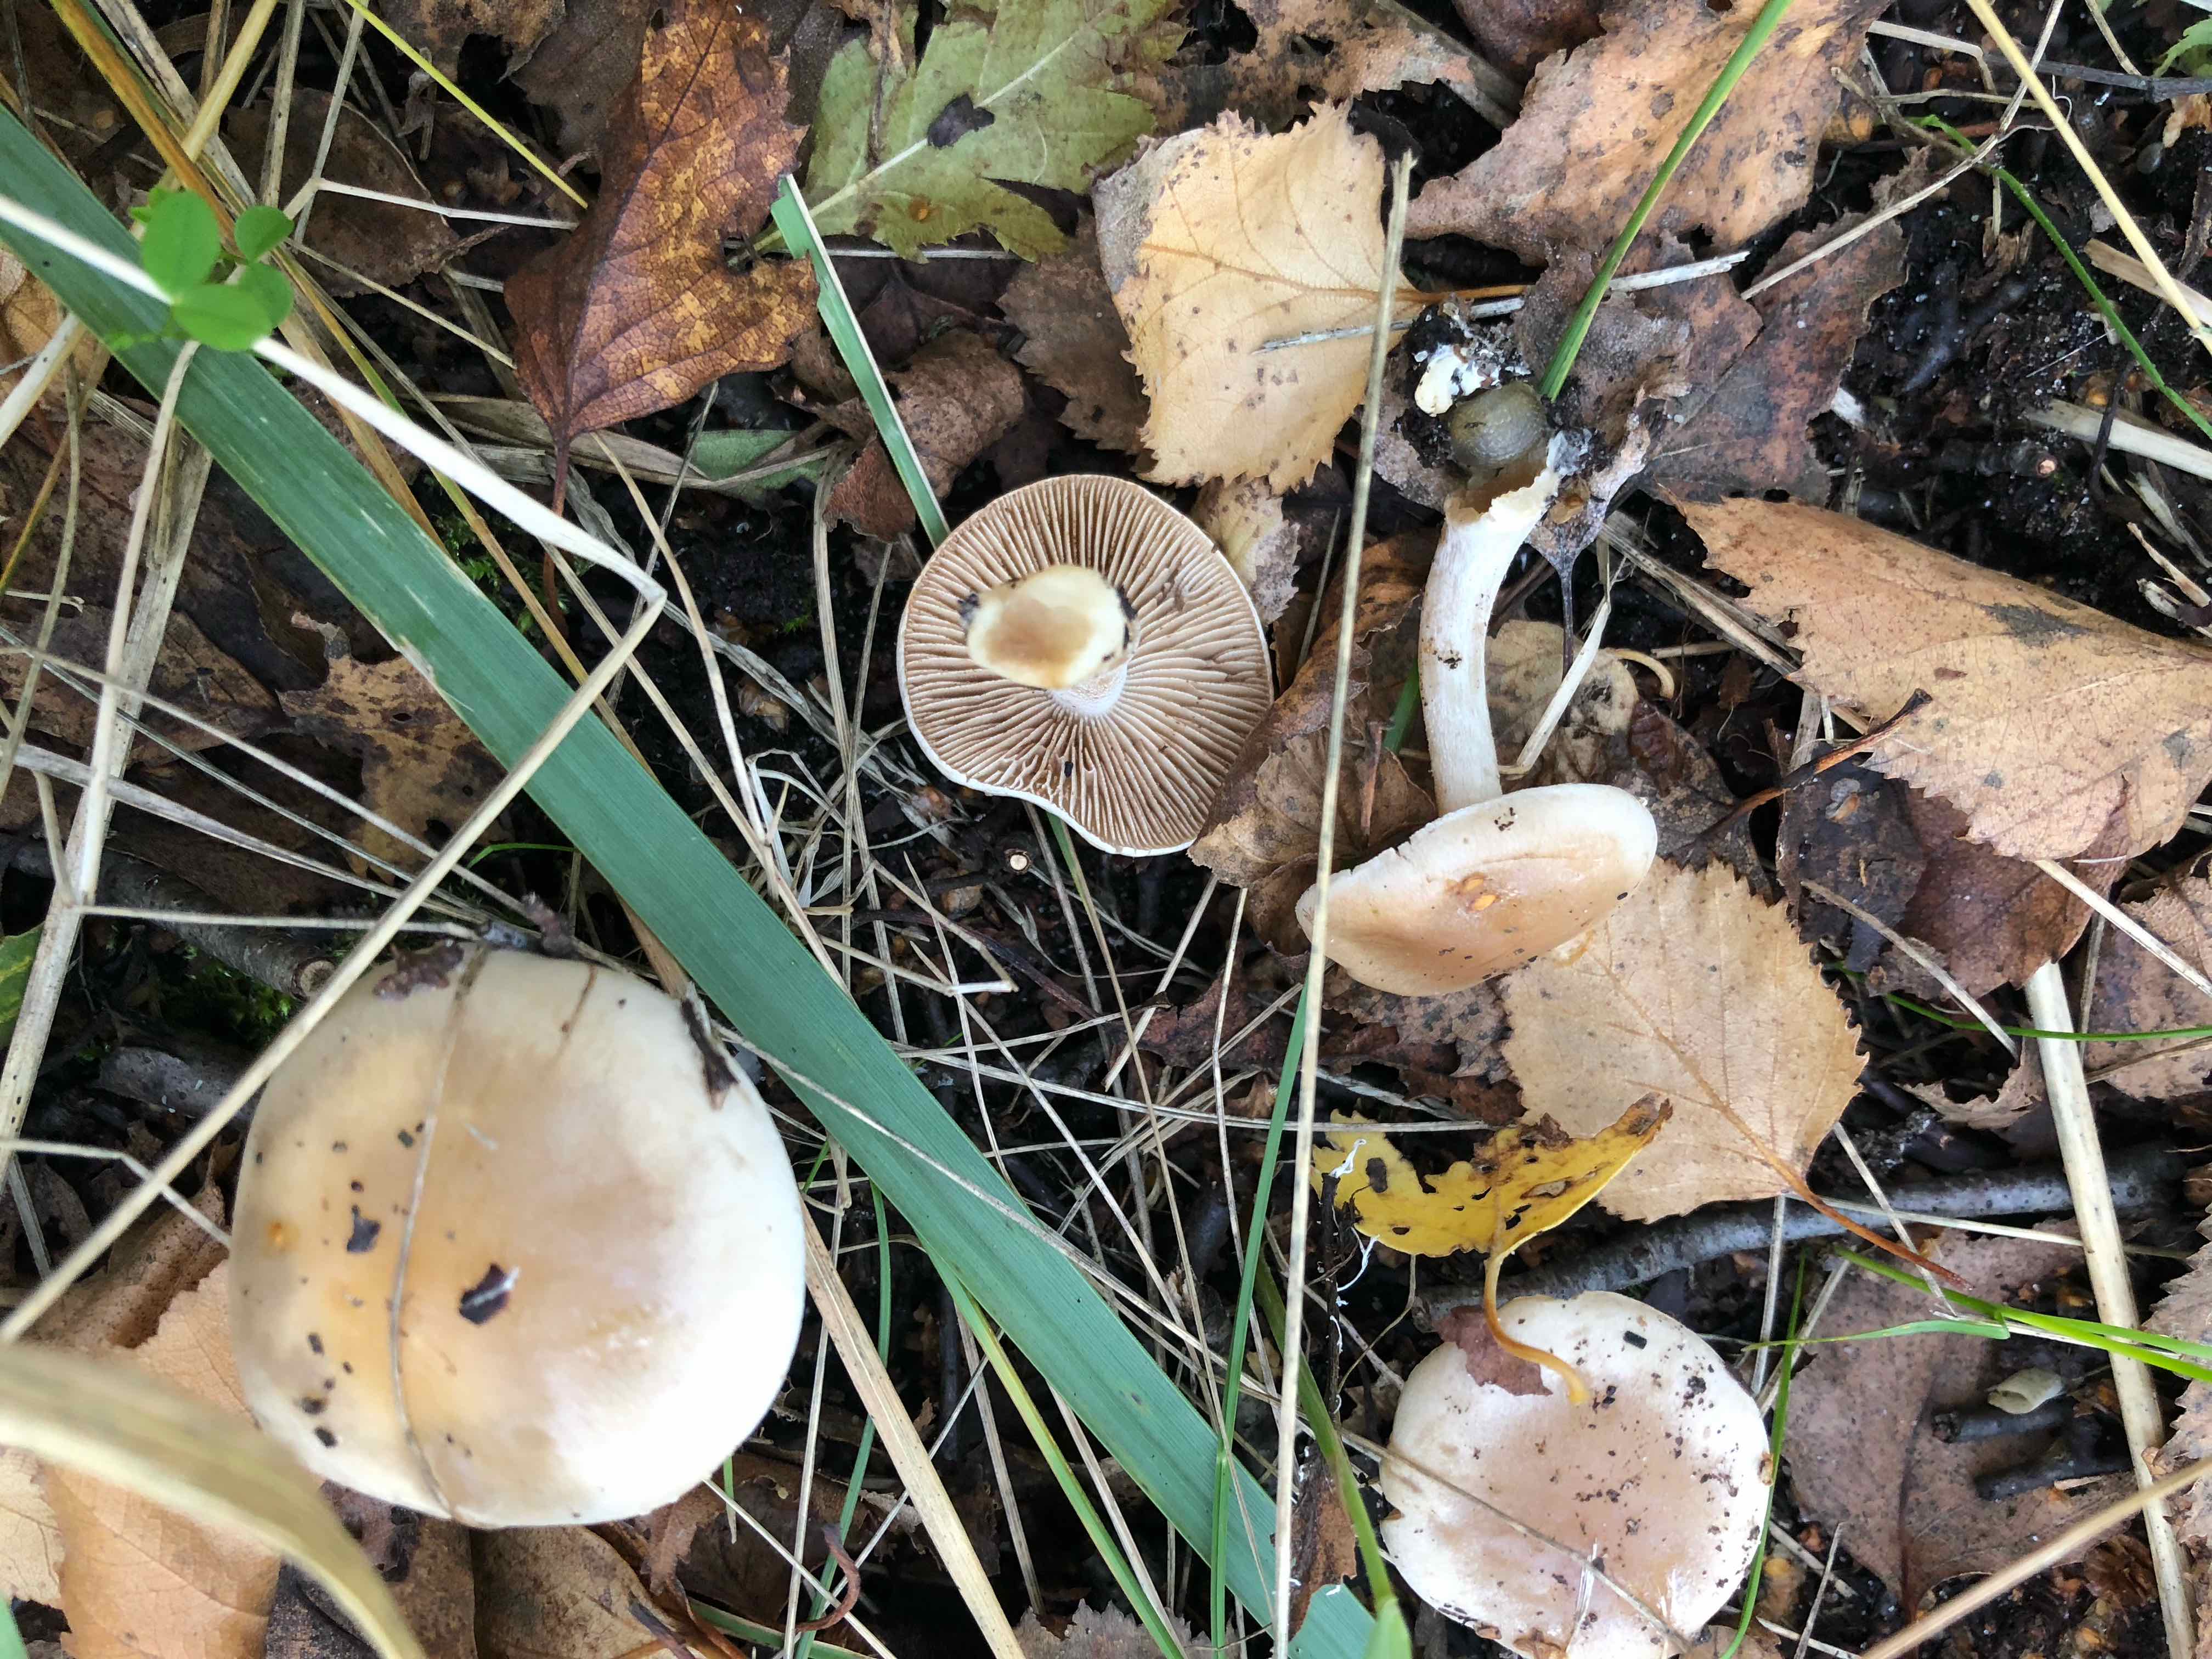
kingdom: Fungi
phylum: Basidiomycota
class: Agaricomycetes
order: Agaricales
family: Hymenogastraceae
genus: Hebeloma
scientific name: Hebeloma
